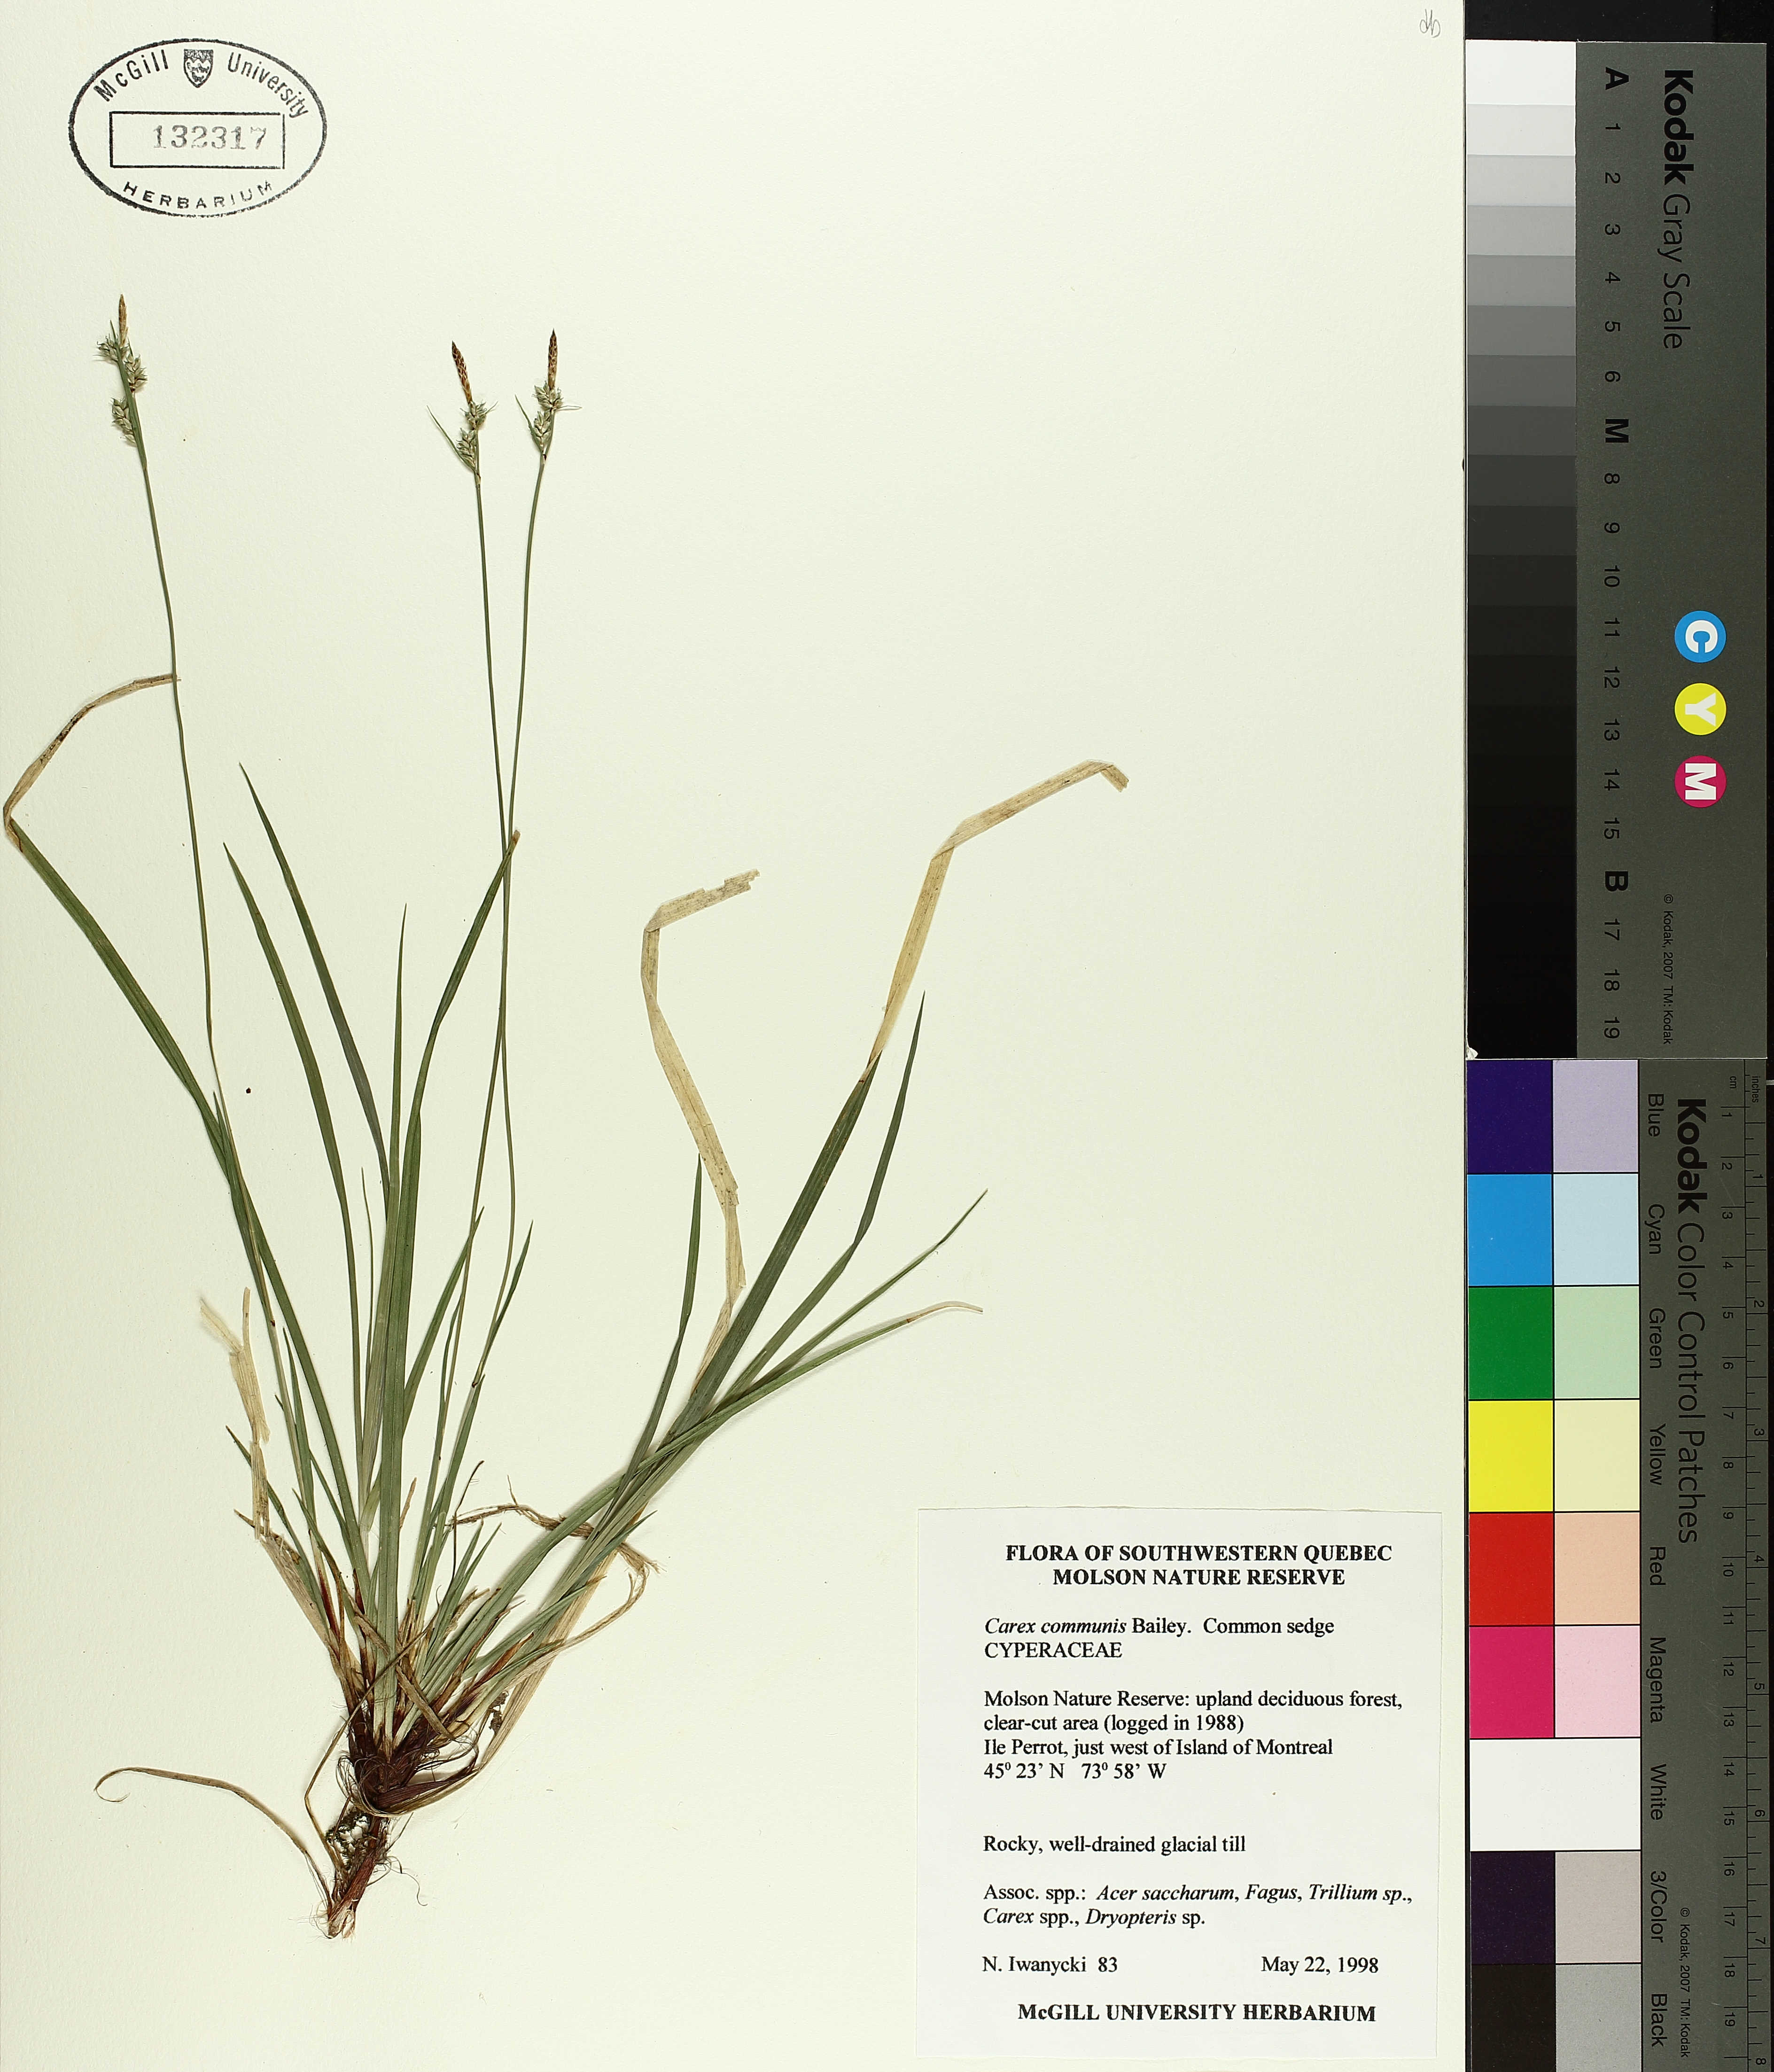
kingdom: Plantae
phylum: Tracheophyta
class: Liliopsida
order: Poales
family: Cyperaceae
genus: Carex
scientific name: Carex communis
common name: Colonial oak sedge
